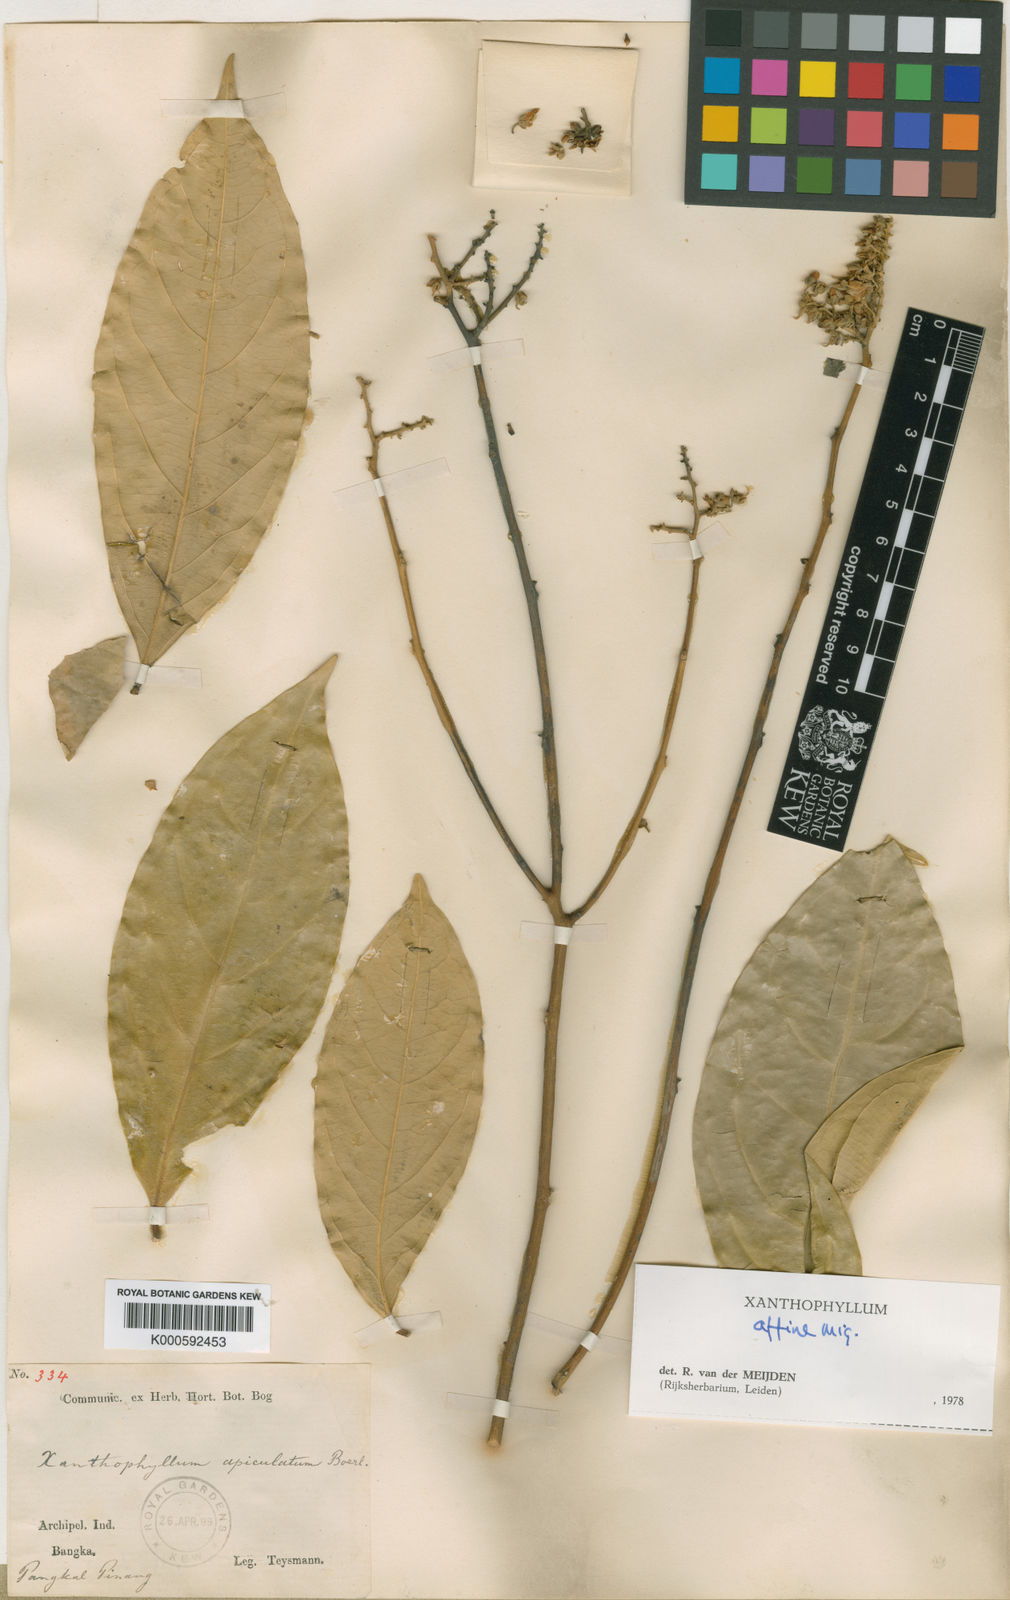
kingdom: Plantae
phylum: Tracheophyta
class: Magnoliopsida
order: Fabales
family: Polygalaceae
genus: Xanthophyllum
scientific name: Xanthophyllum flavescens
